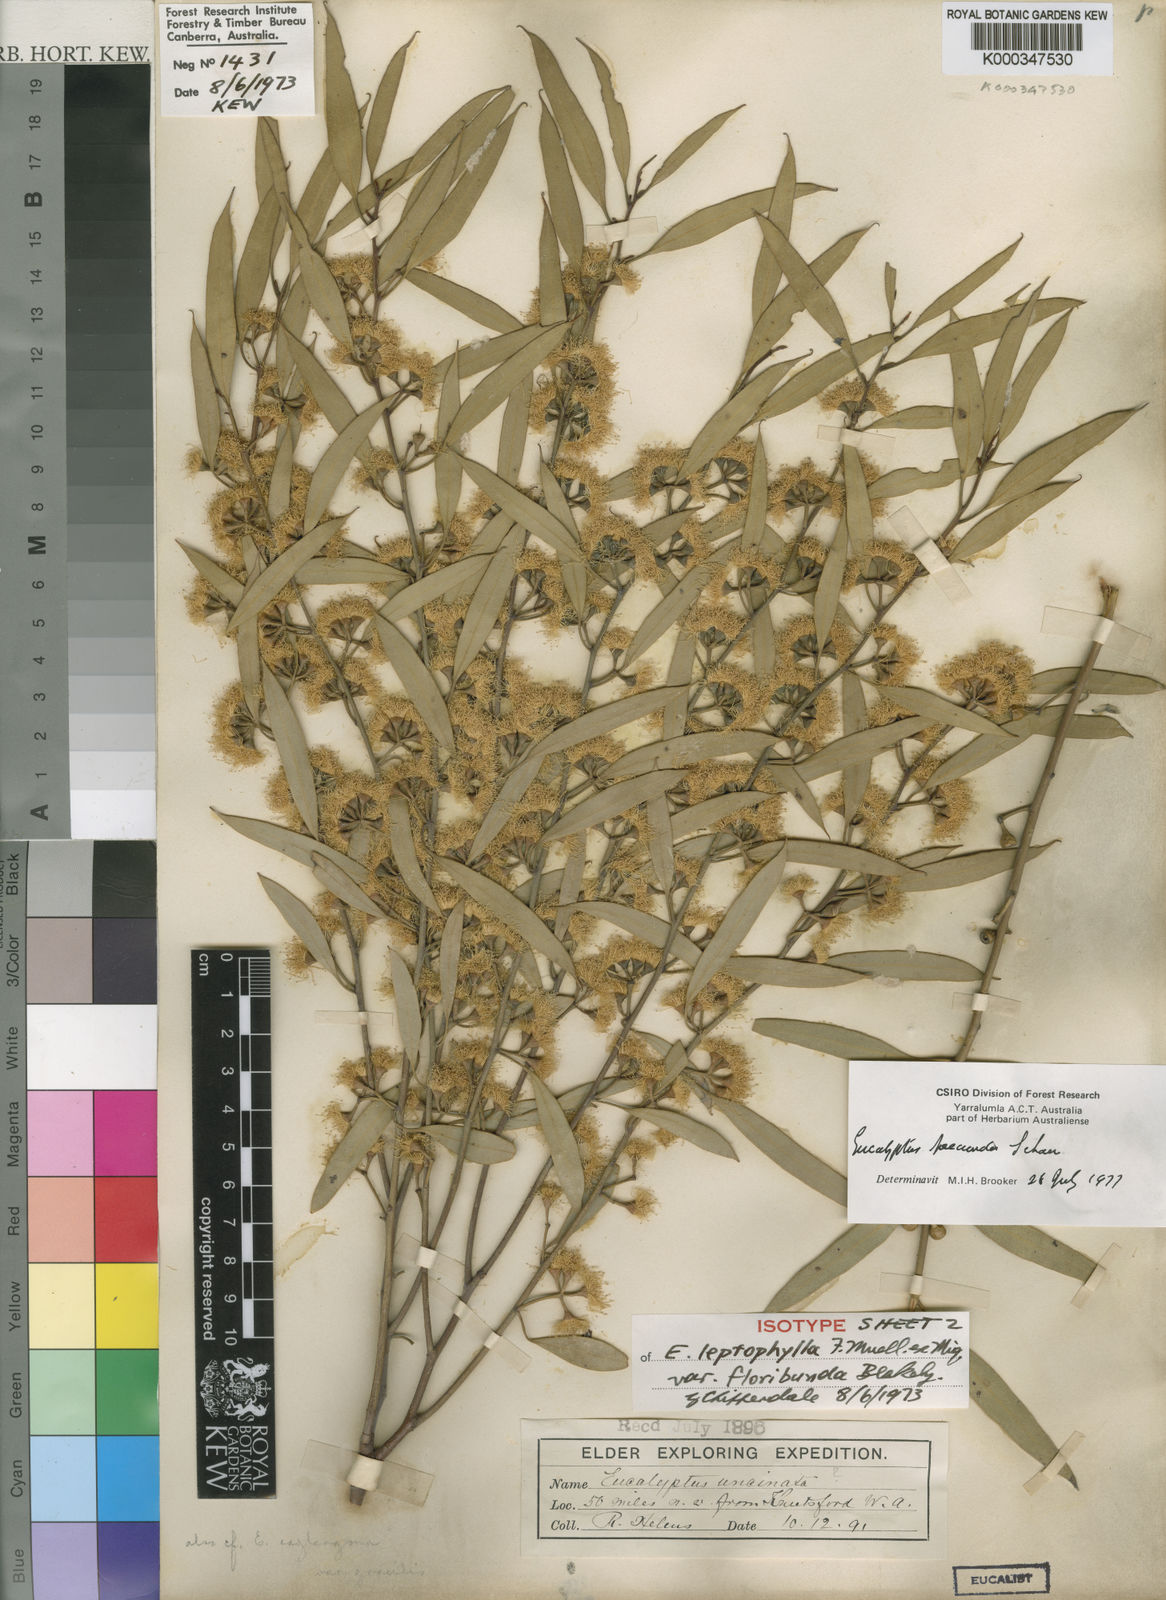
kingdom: Plantae
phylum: Tracheophyta
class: Magnoliopsida
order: Myrtales
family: Myrtaceae
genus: Eucalyptus
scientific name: Eucalyptus foecunda
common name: Freemantle mallee
